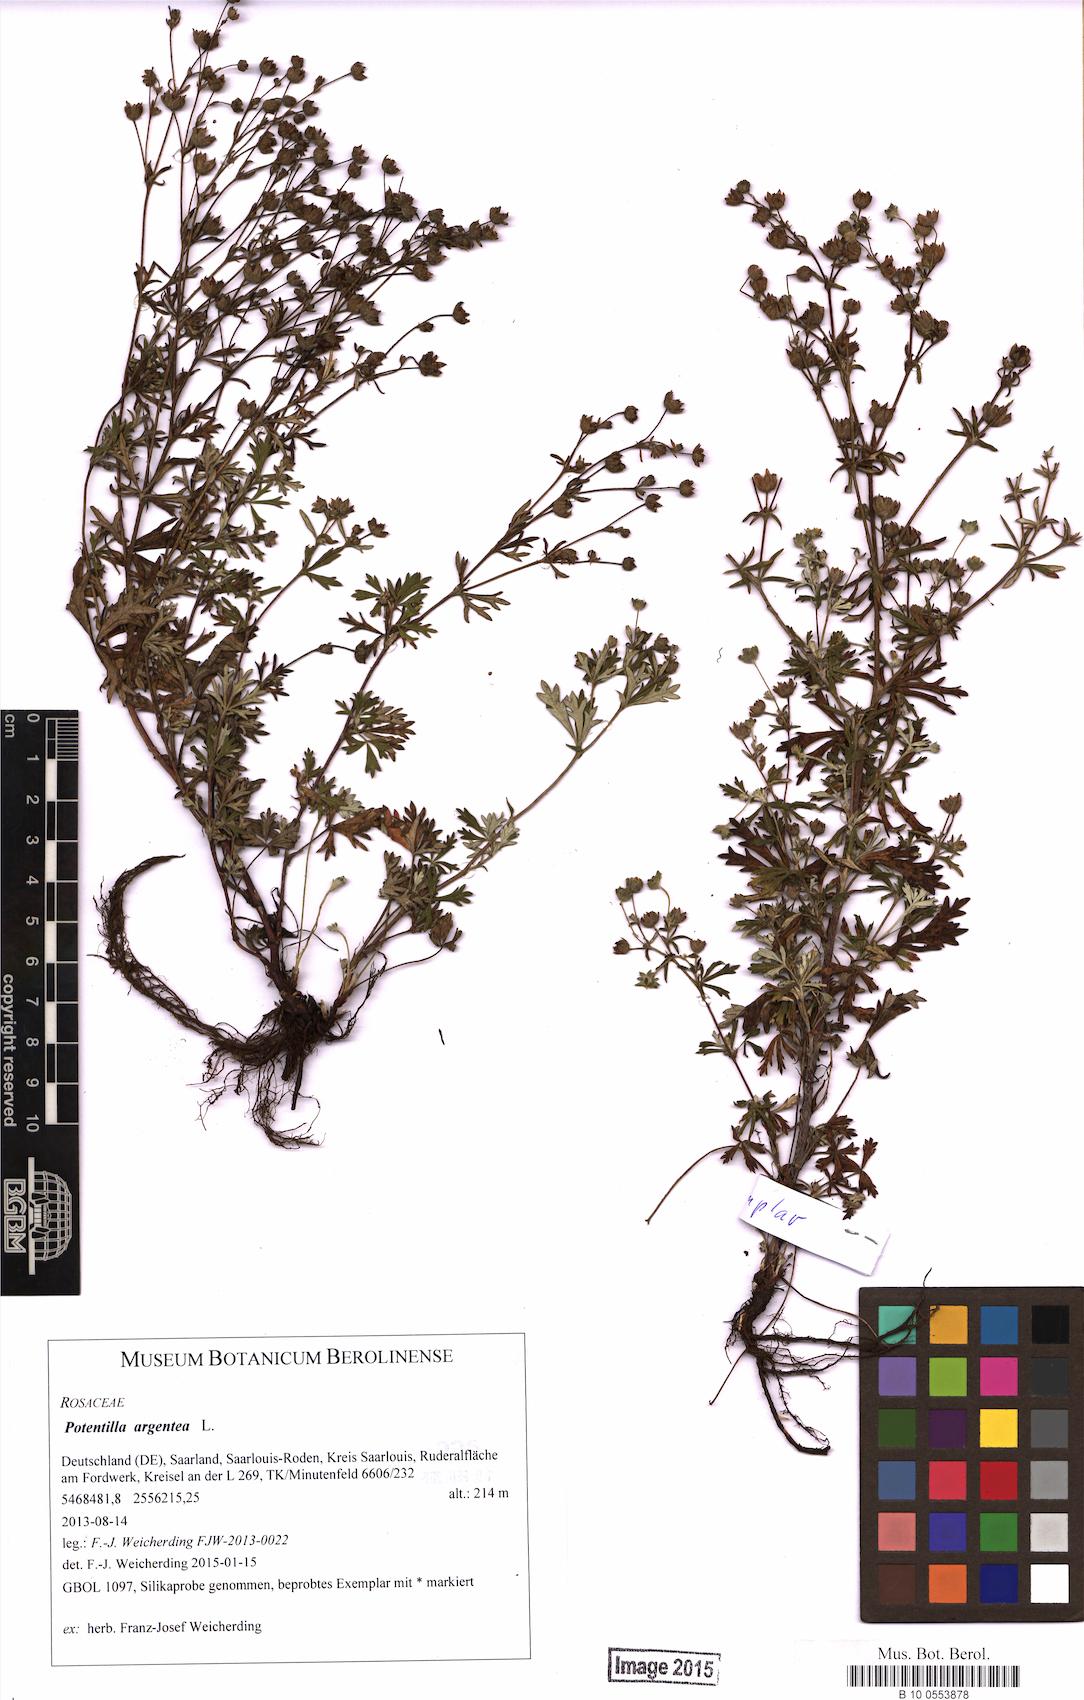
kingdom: Plantae
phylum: Tracheophyta
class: Magnoliopsida
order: Rosales
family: Rosaceae
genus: Potentilla
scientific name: Potentilla argentea
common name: Hoary cinquefoil
